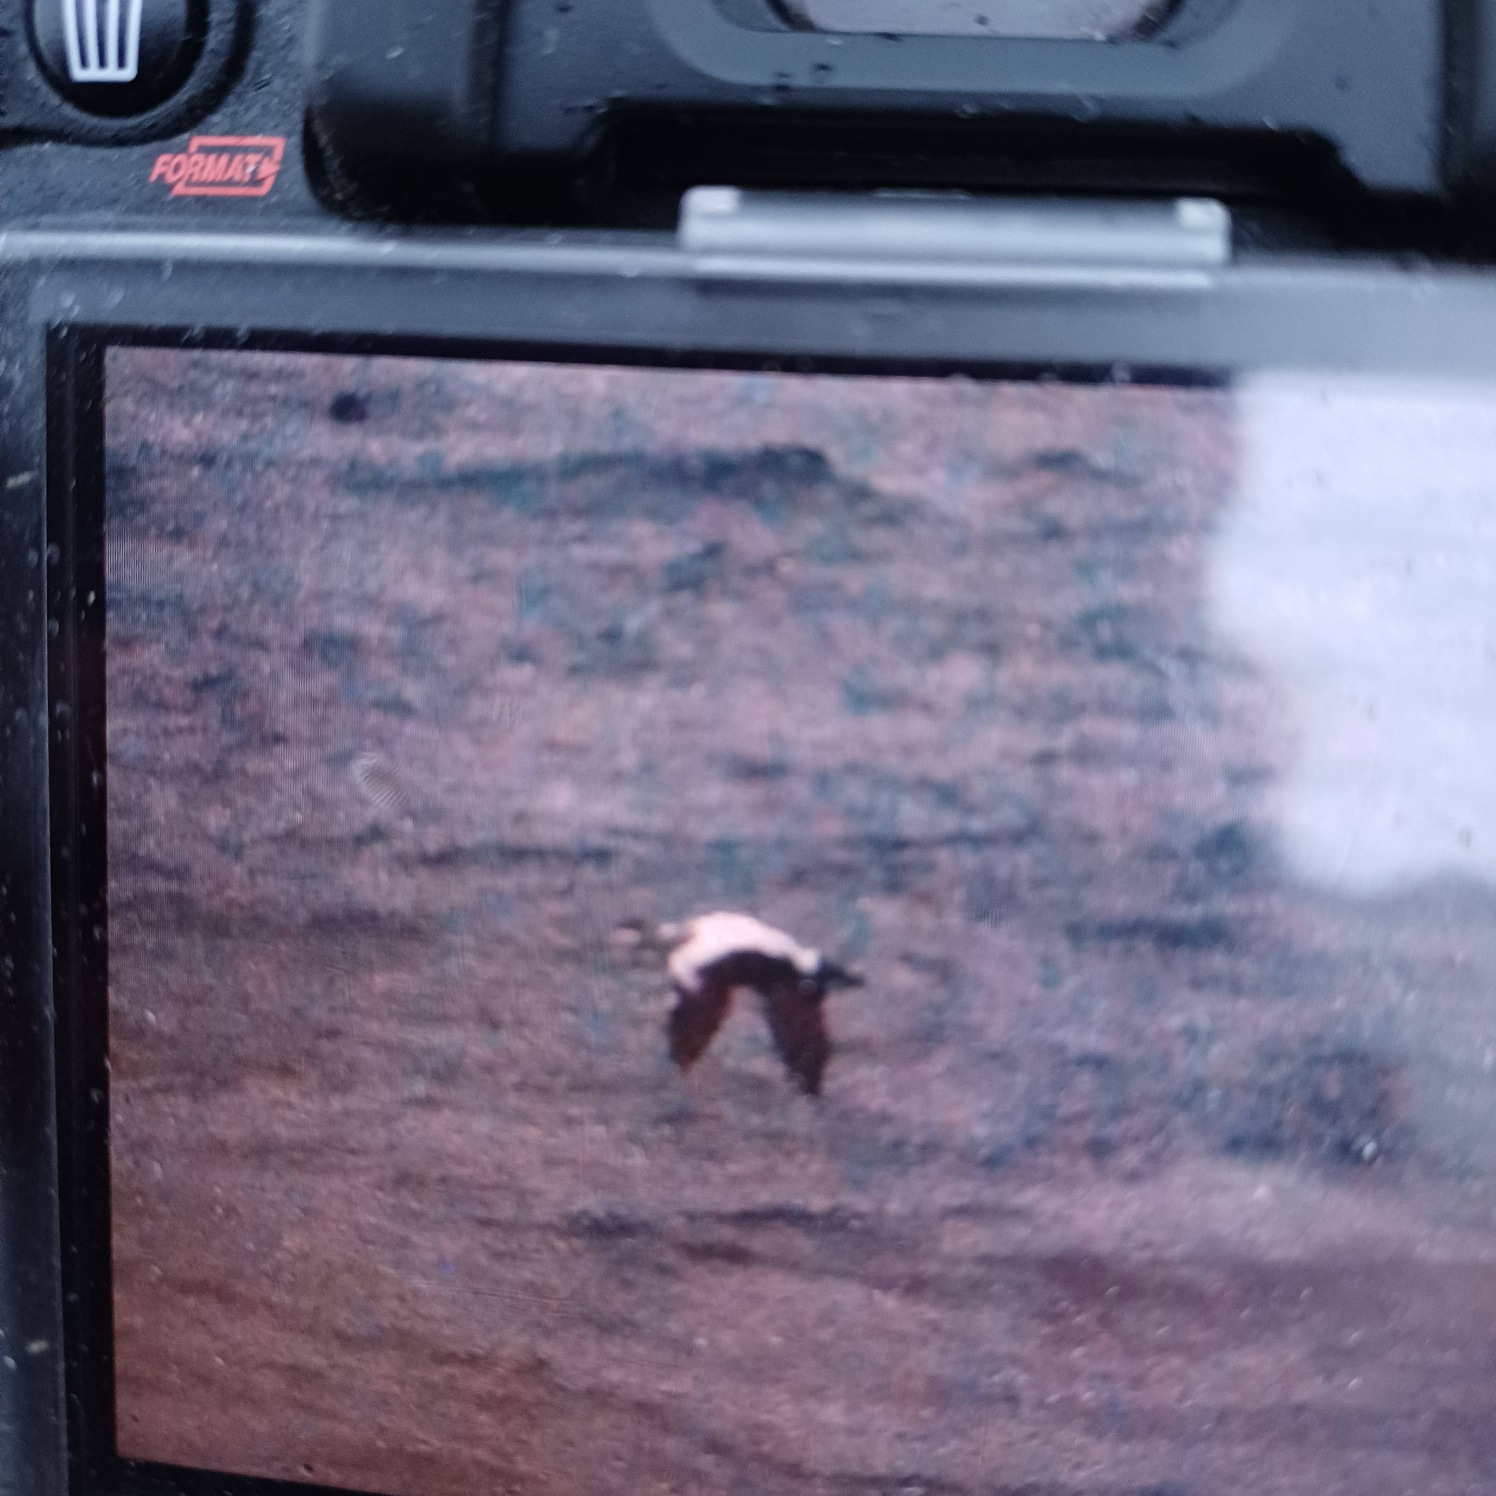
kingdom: Animalia
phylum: Chordata
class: Aves
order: Anseriformes
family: Anatidae
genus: Somateria
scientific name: Somateria mollissima
